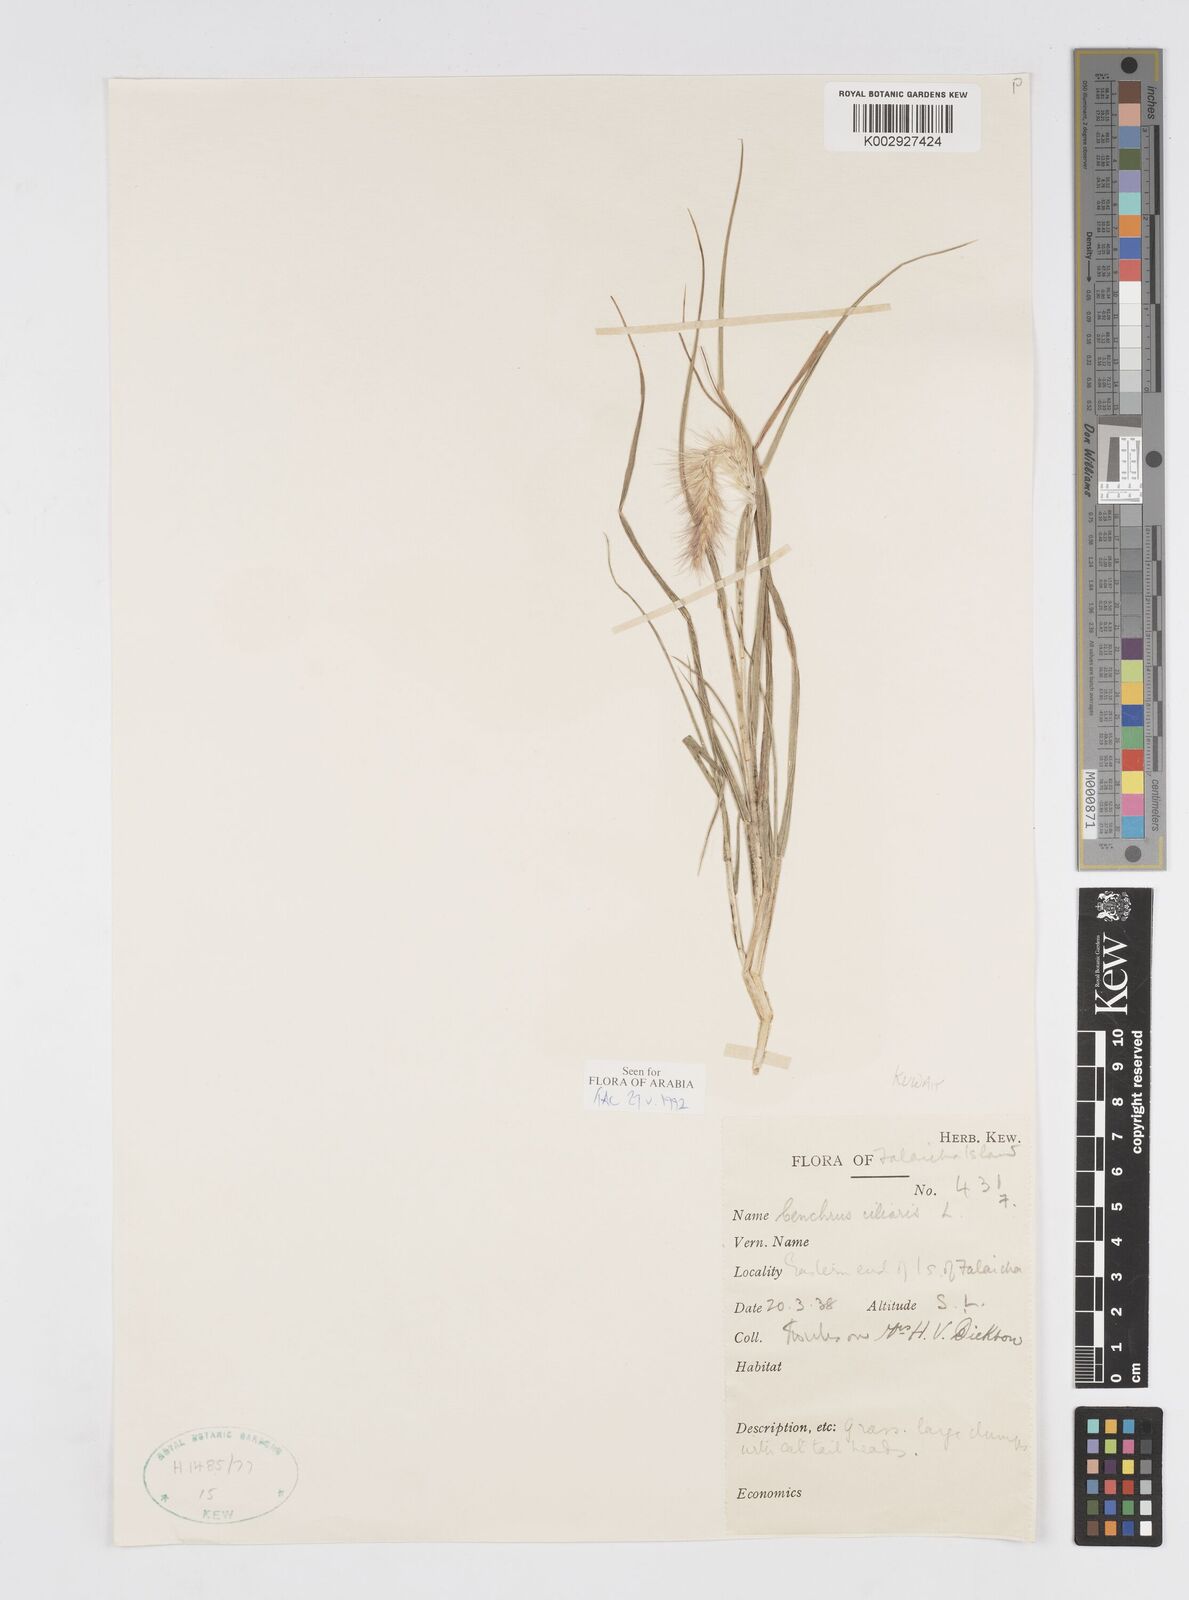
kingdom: Plantae
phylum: Tracheophyta
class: Liliopsida
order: Poales
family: Poaceae
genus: Cenchrus
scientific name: Cenchrus ciliaris
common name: Buffelgrass
